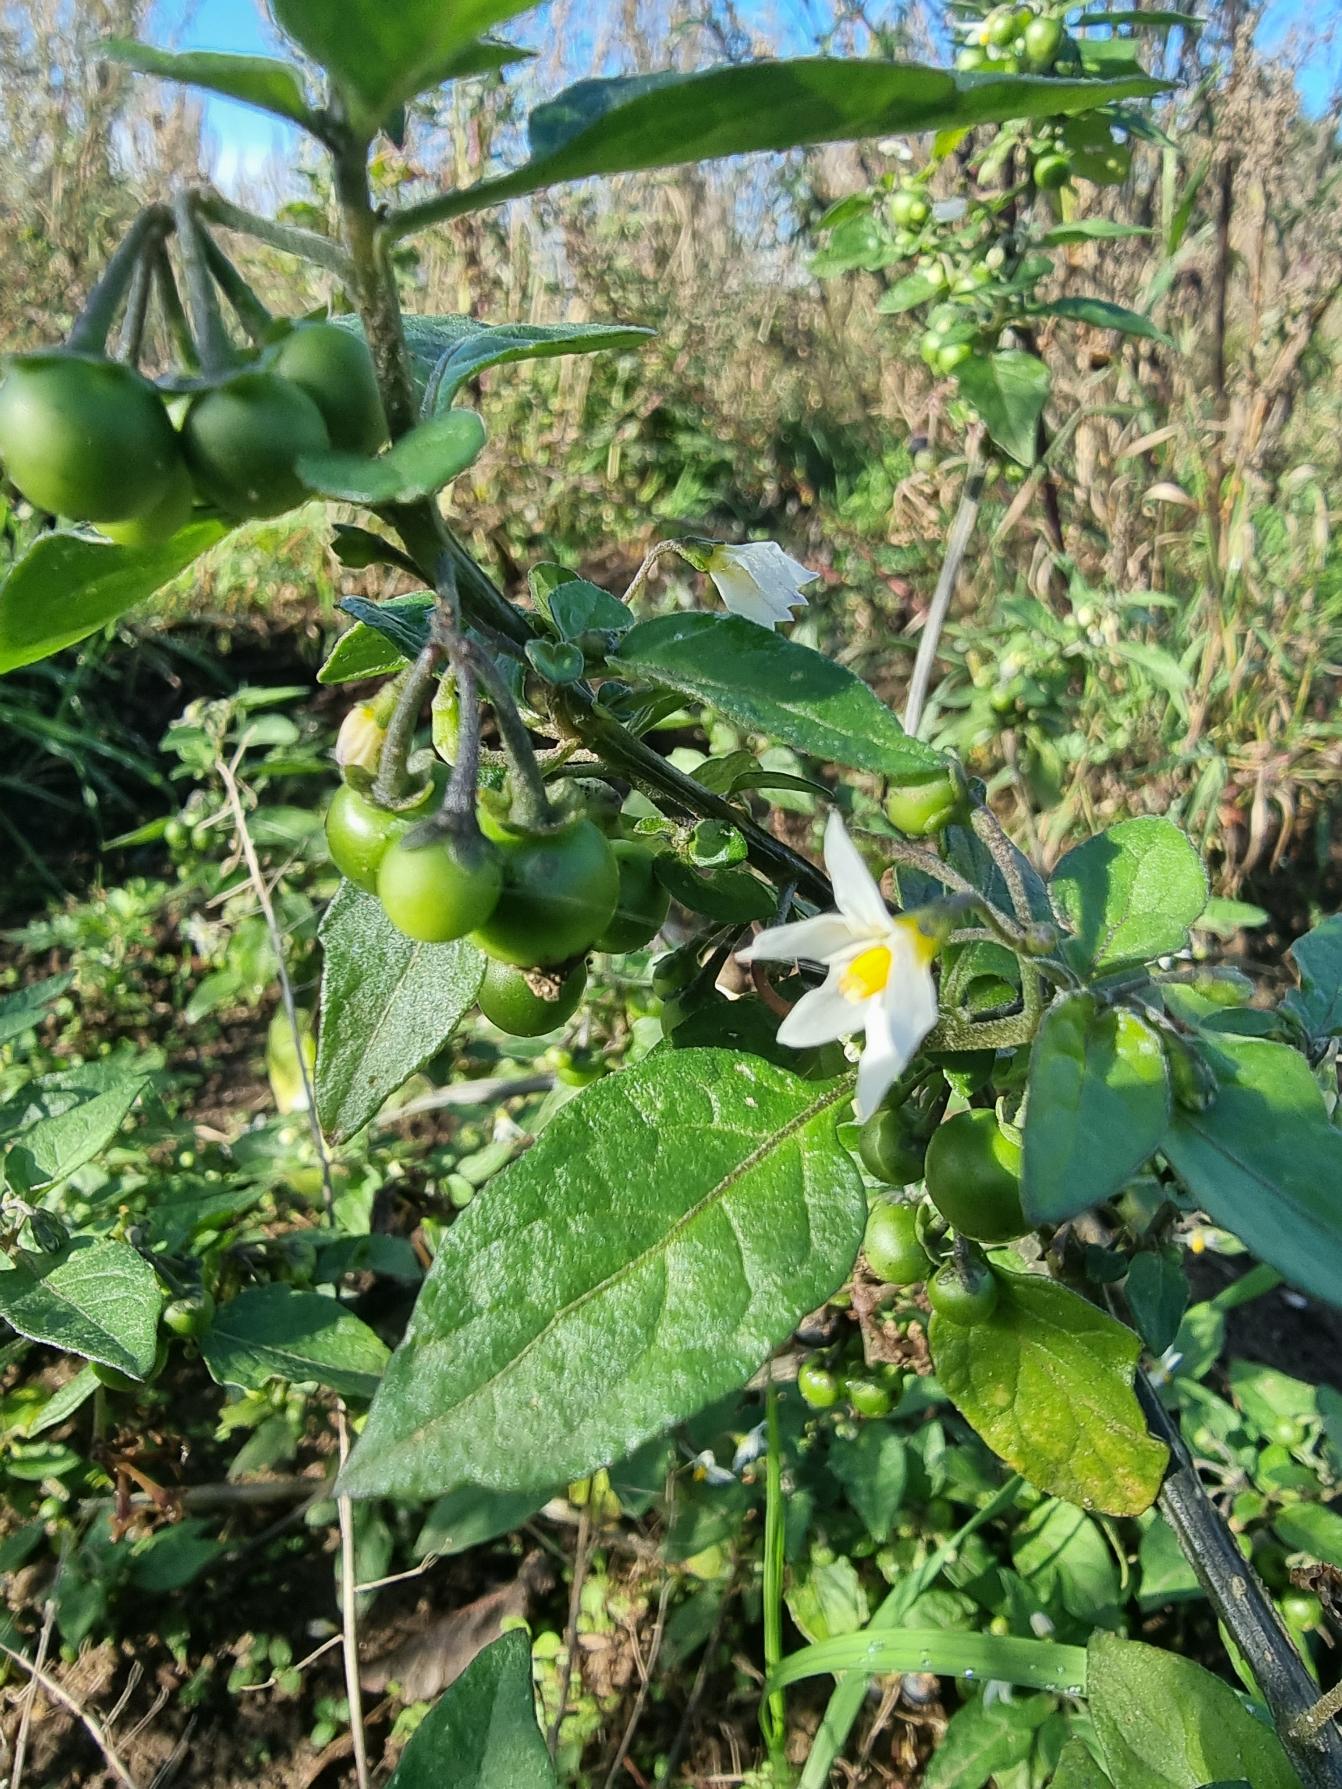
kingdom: Plantae
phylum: Tracheophyta
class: Magnoliopsida
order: Solanales
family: Solanaceae
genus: Solanum
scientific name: Solanum nigrum
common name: Sort natskygge
